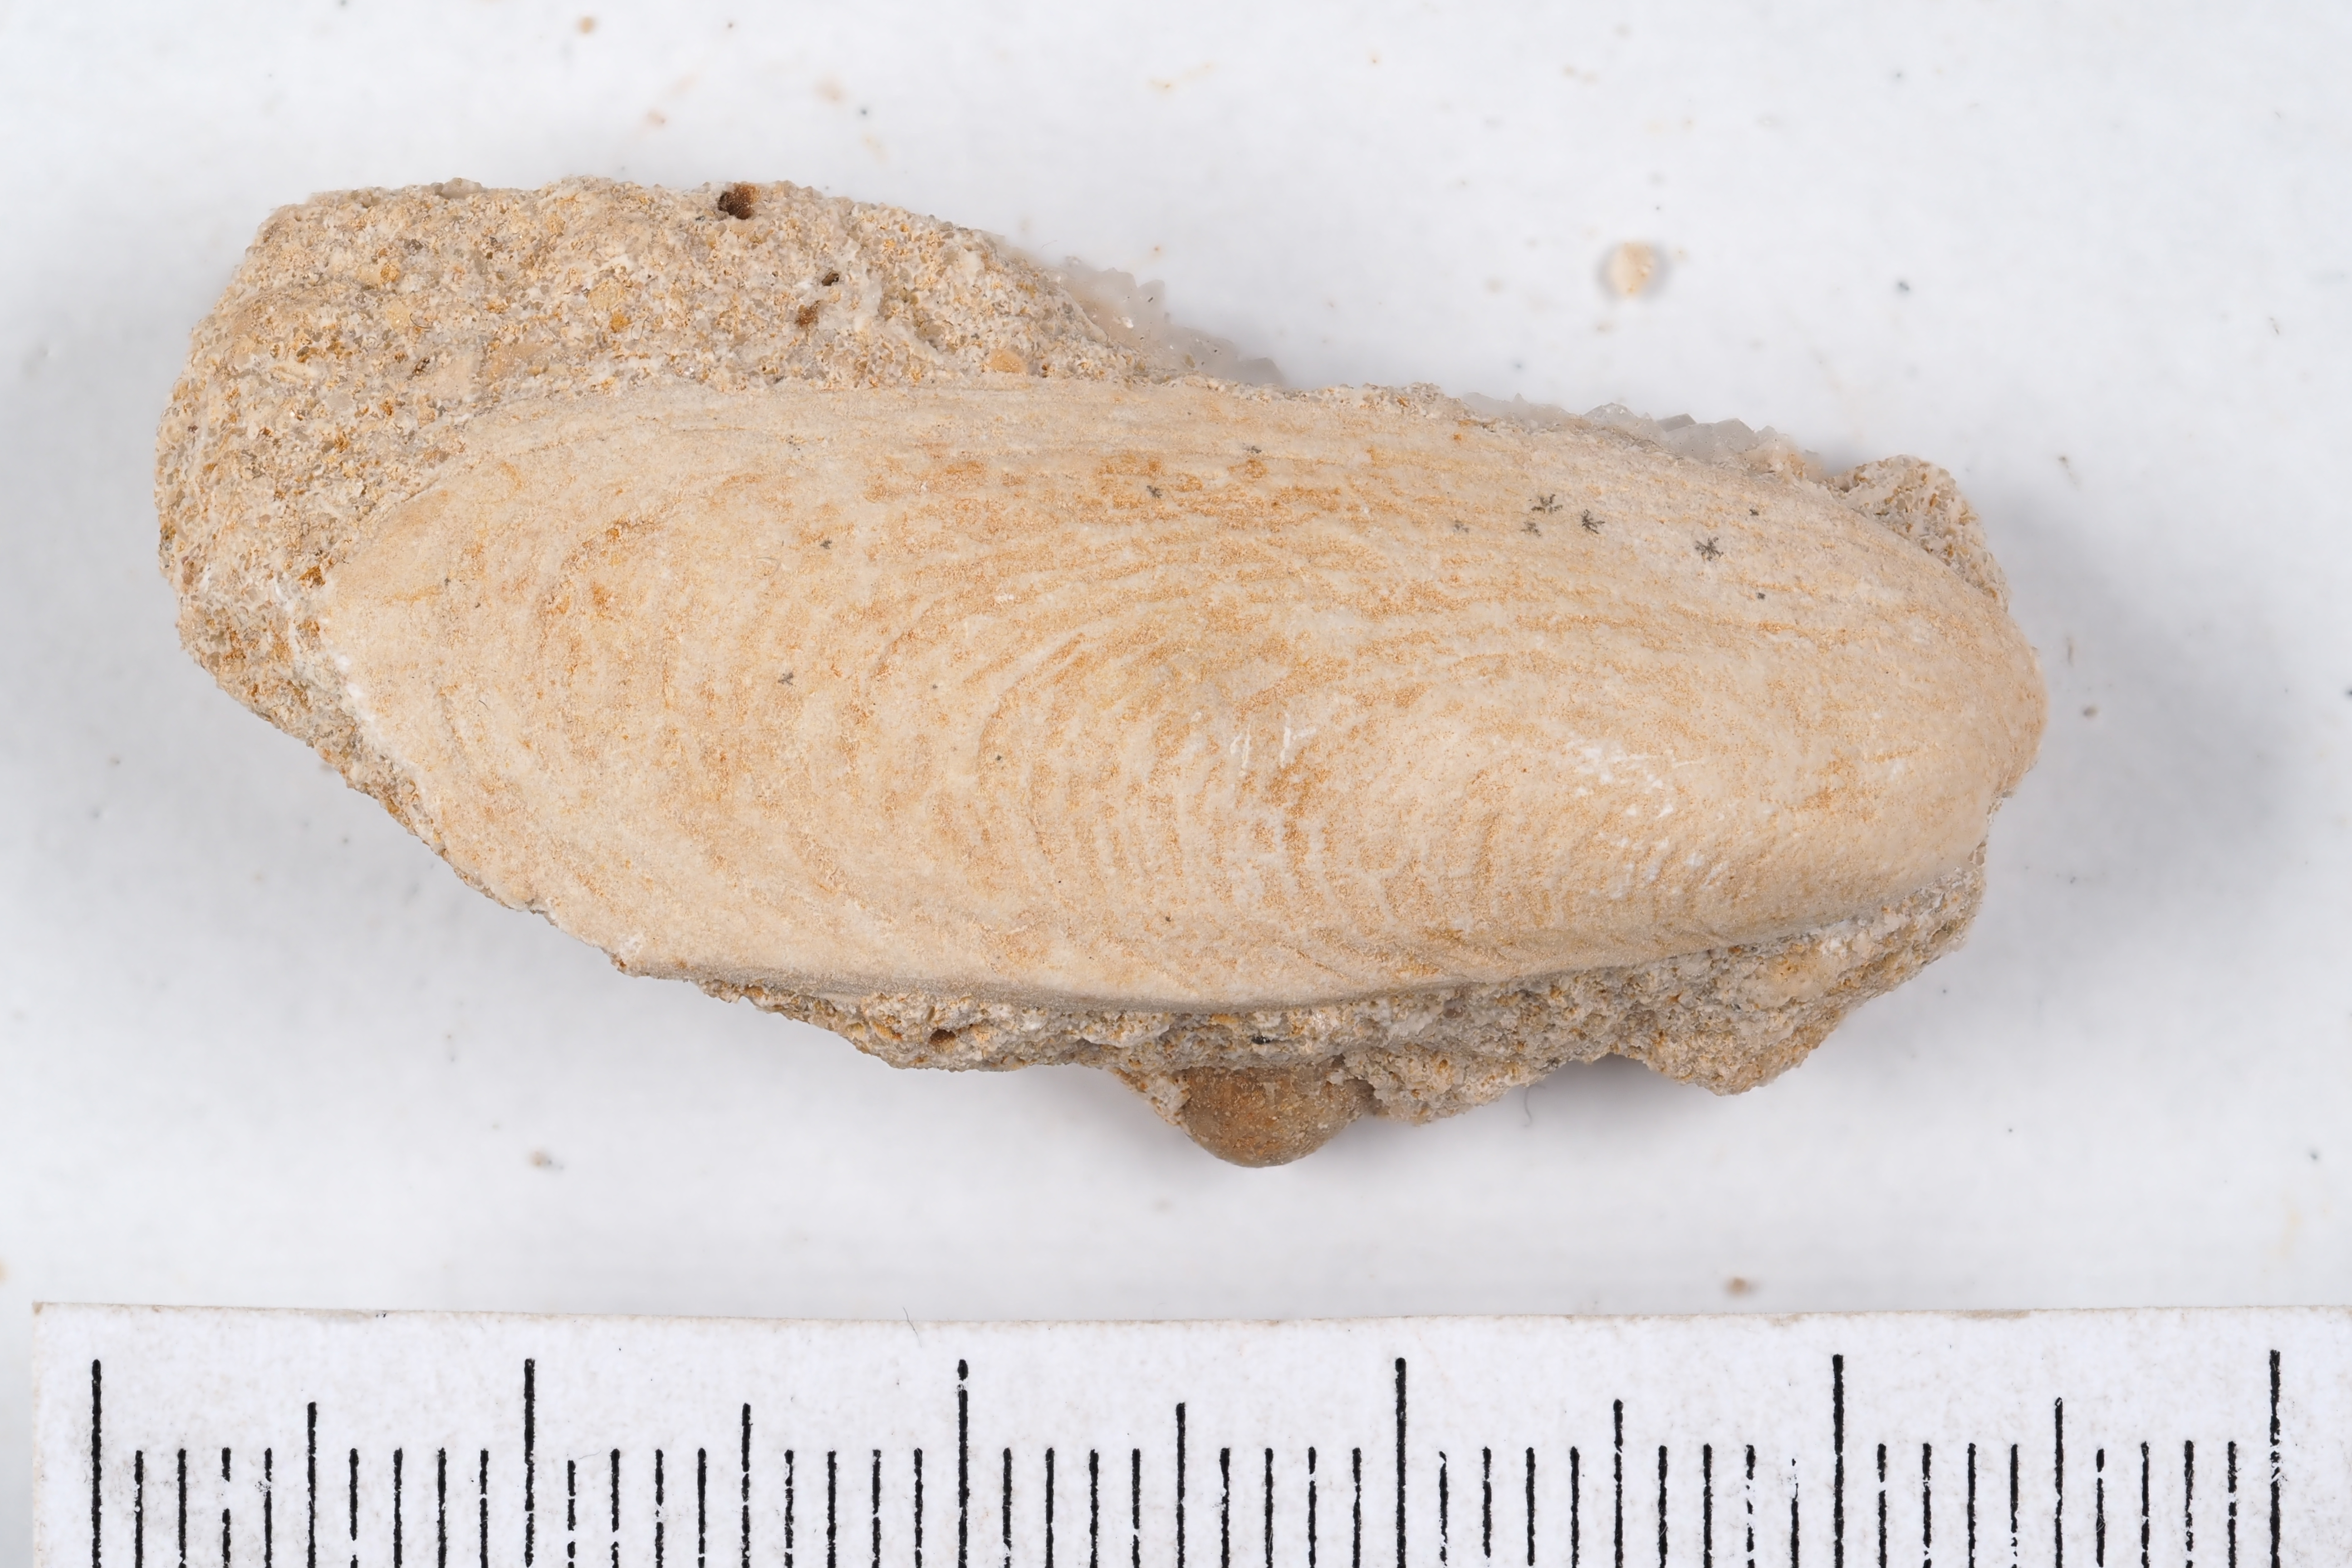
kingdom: Animalia
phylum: Mollusca
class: Bivalvia
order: Carditida
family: Cardiniidae
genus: Cardinia
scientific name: Cardinia
